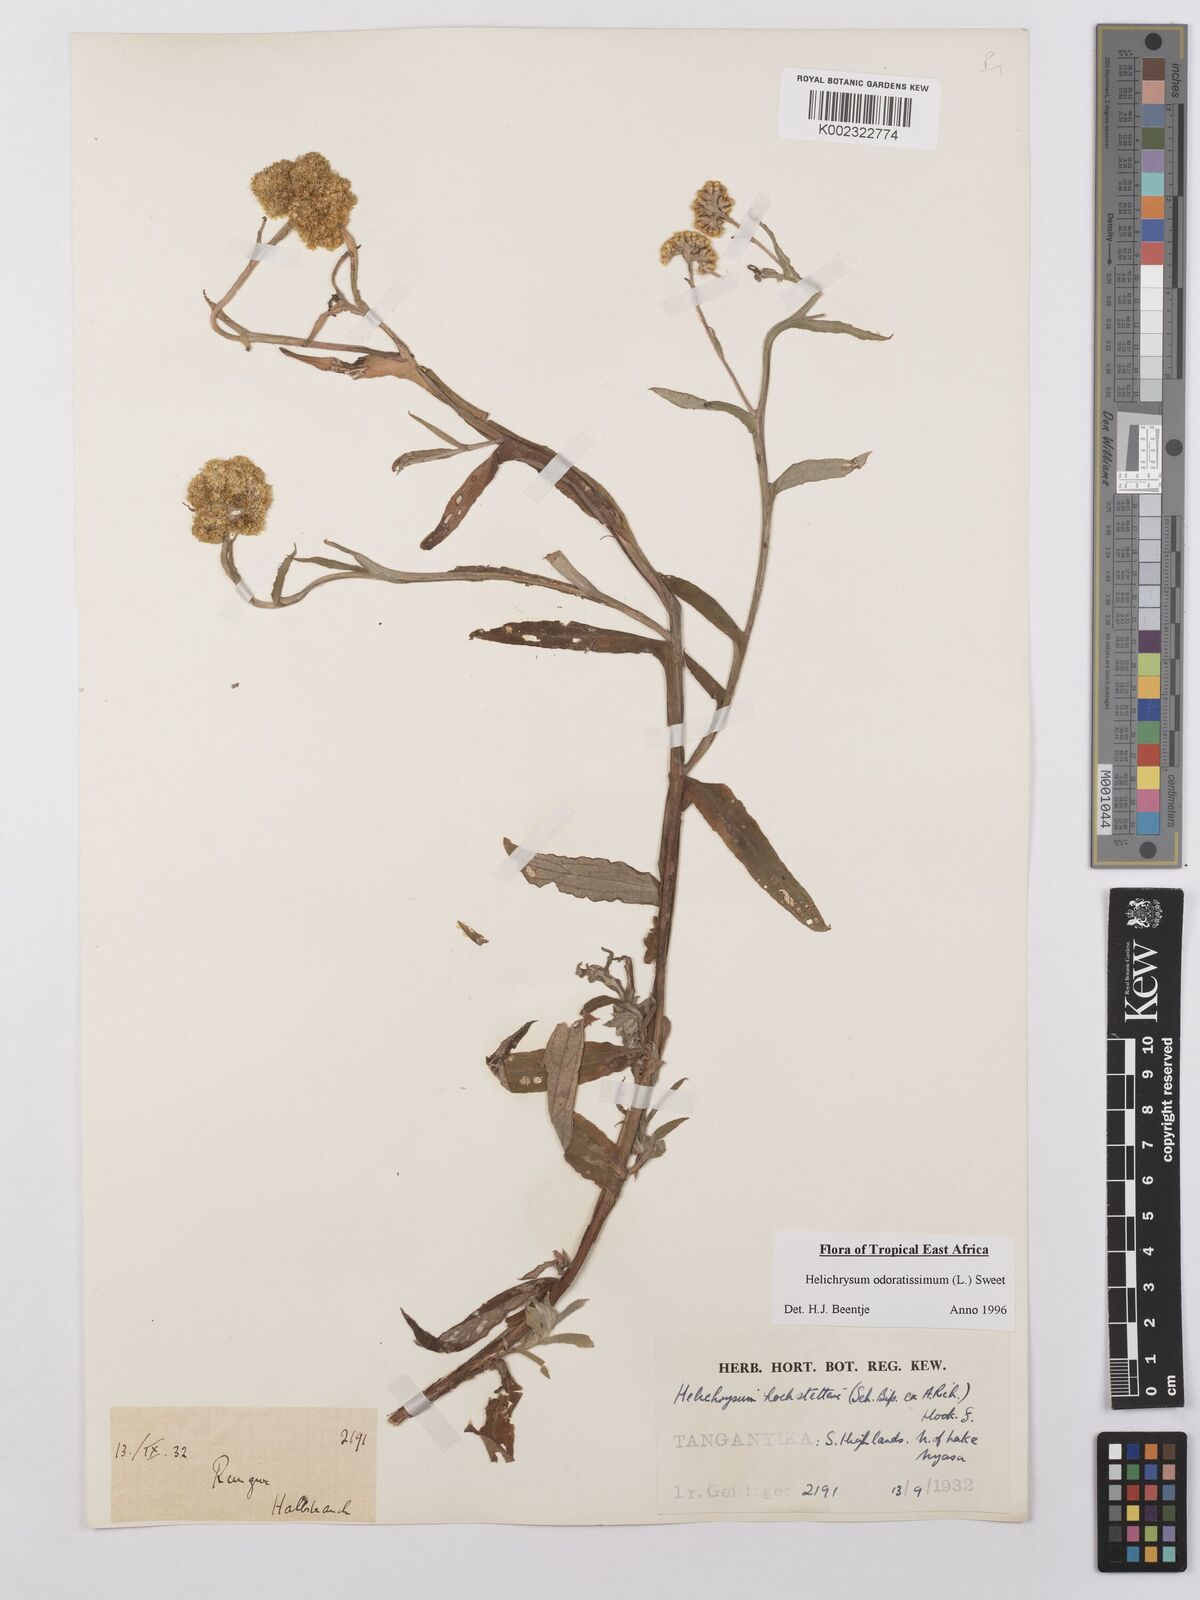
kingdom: Plantae
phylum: Tracheophyta
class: Magnoliopsida
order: Asterales
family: Asteraceae
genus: Helichrysum
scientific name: Helichrysum odoratissimum
